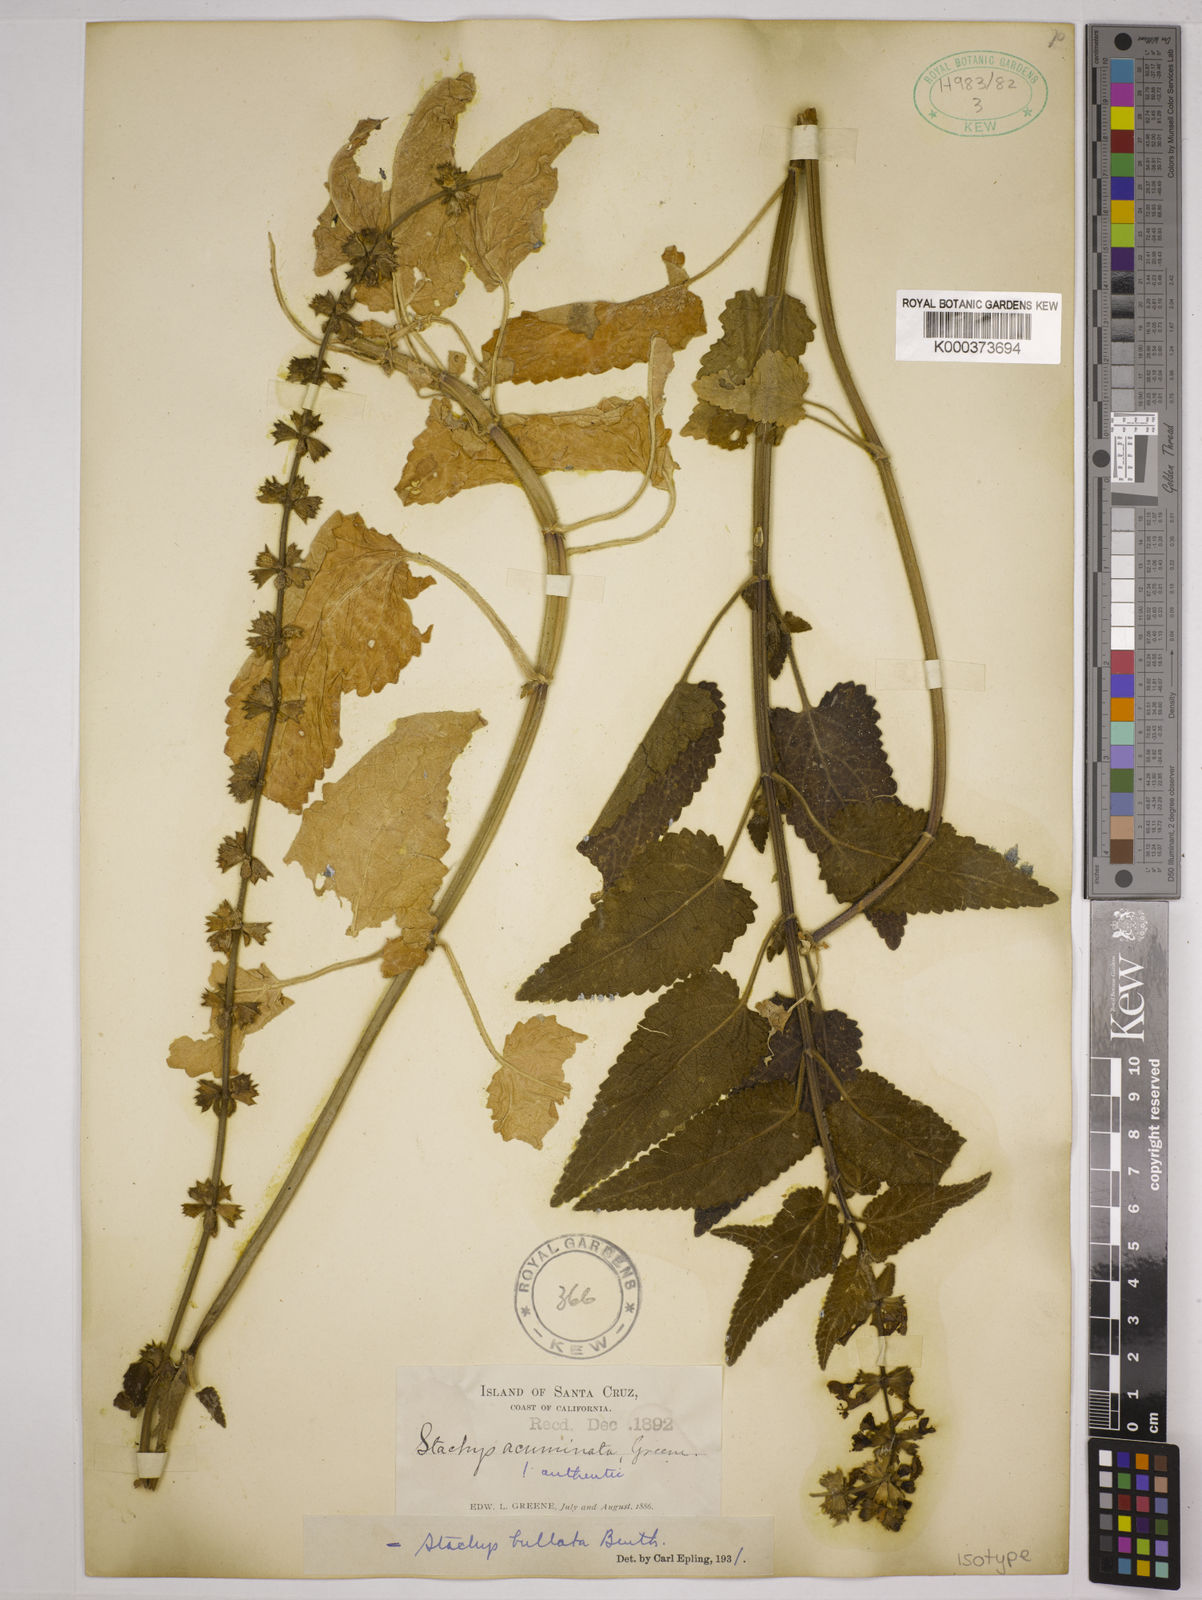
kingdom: Plantae
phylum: Tracheophyta
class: Magnoliopsida
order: Lamiales
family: Lamiaceae
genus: Stachys
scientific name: Stachys bullata
